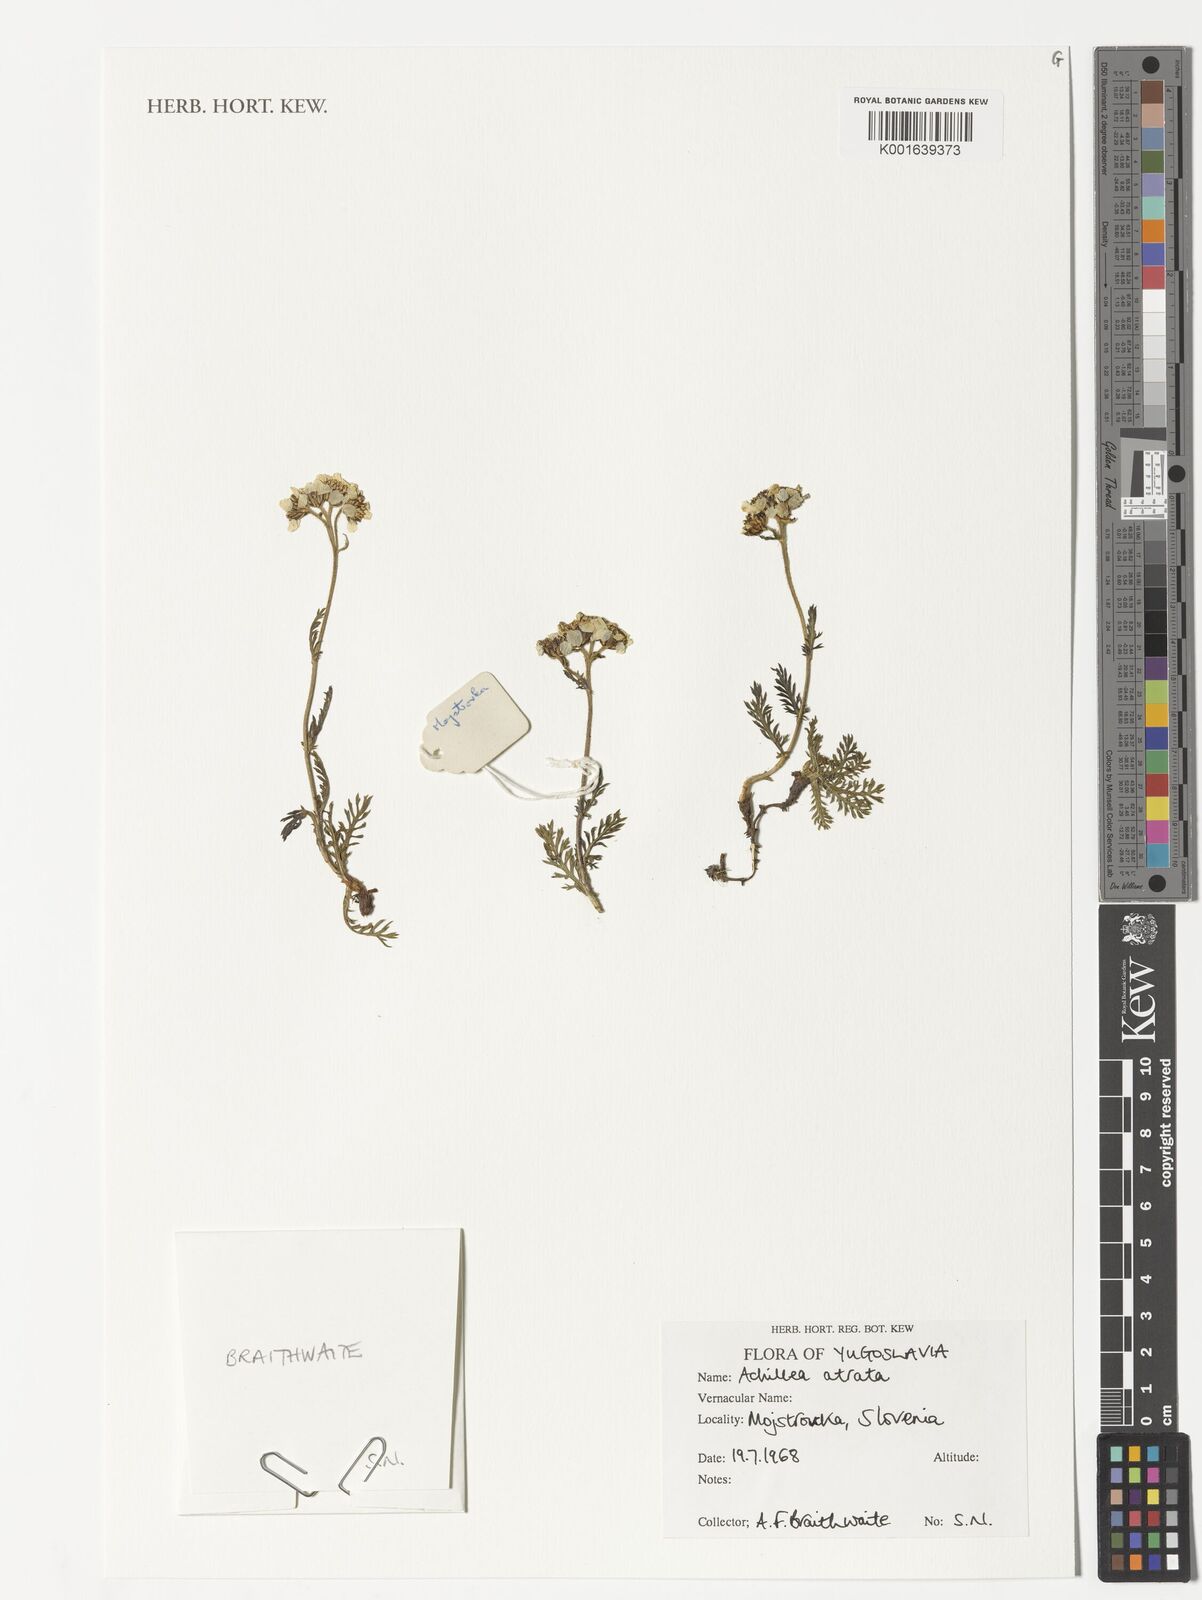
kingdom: Plantae
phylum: Tracheophyta
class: Magnoliopsida
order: Asterales
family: Asteraceae
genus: Achillea
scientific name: Achillea atrata
